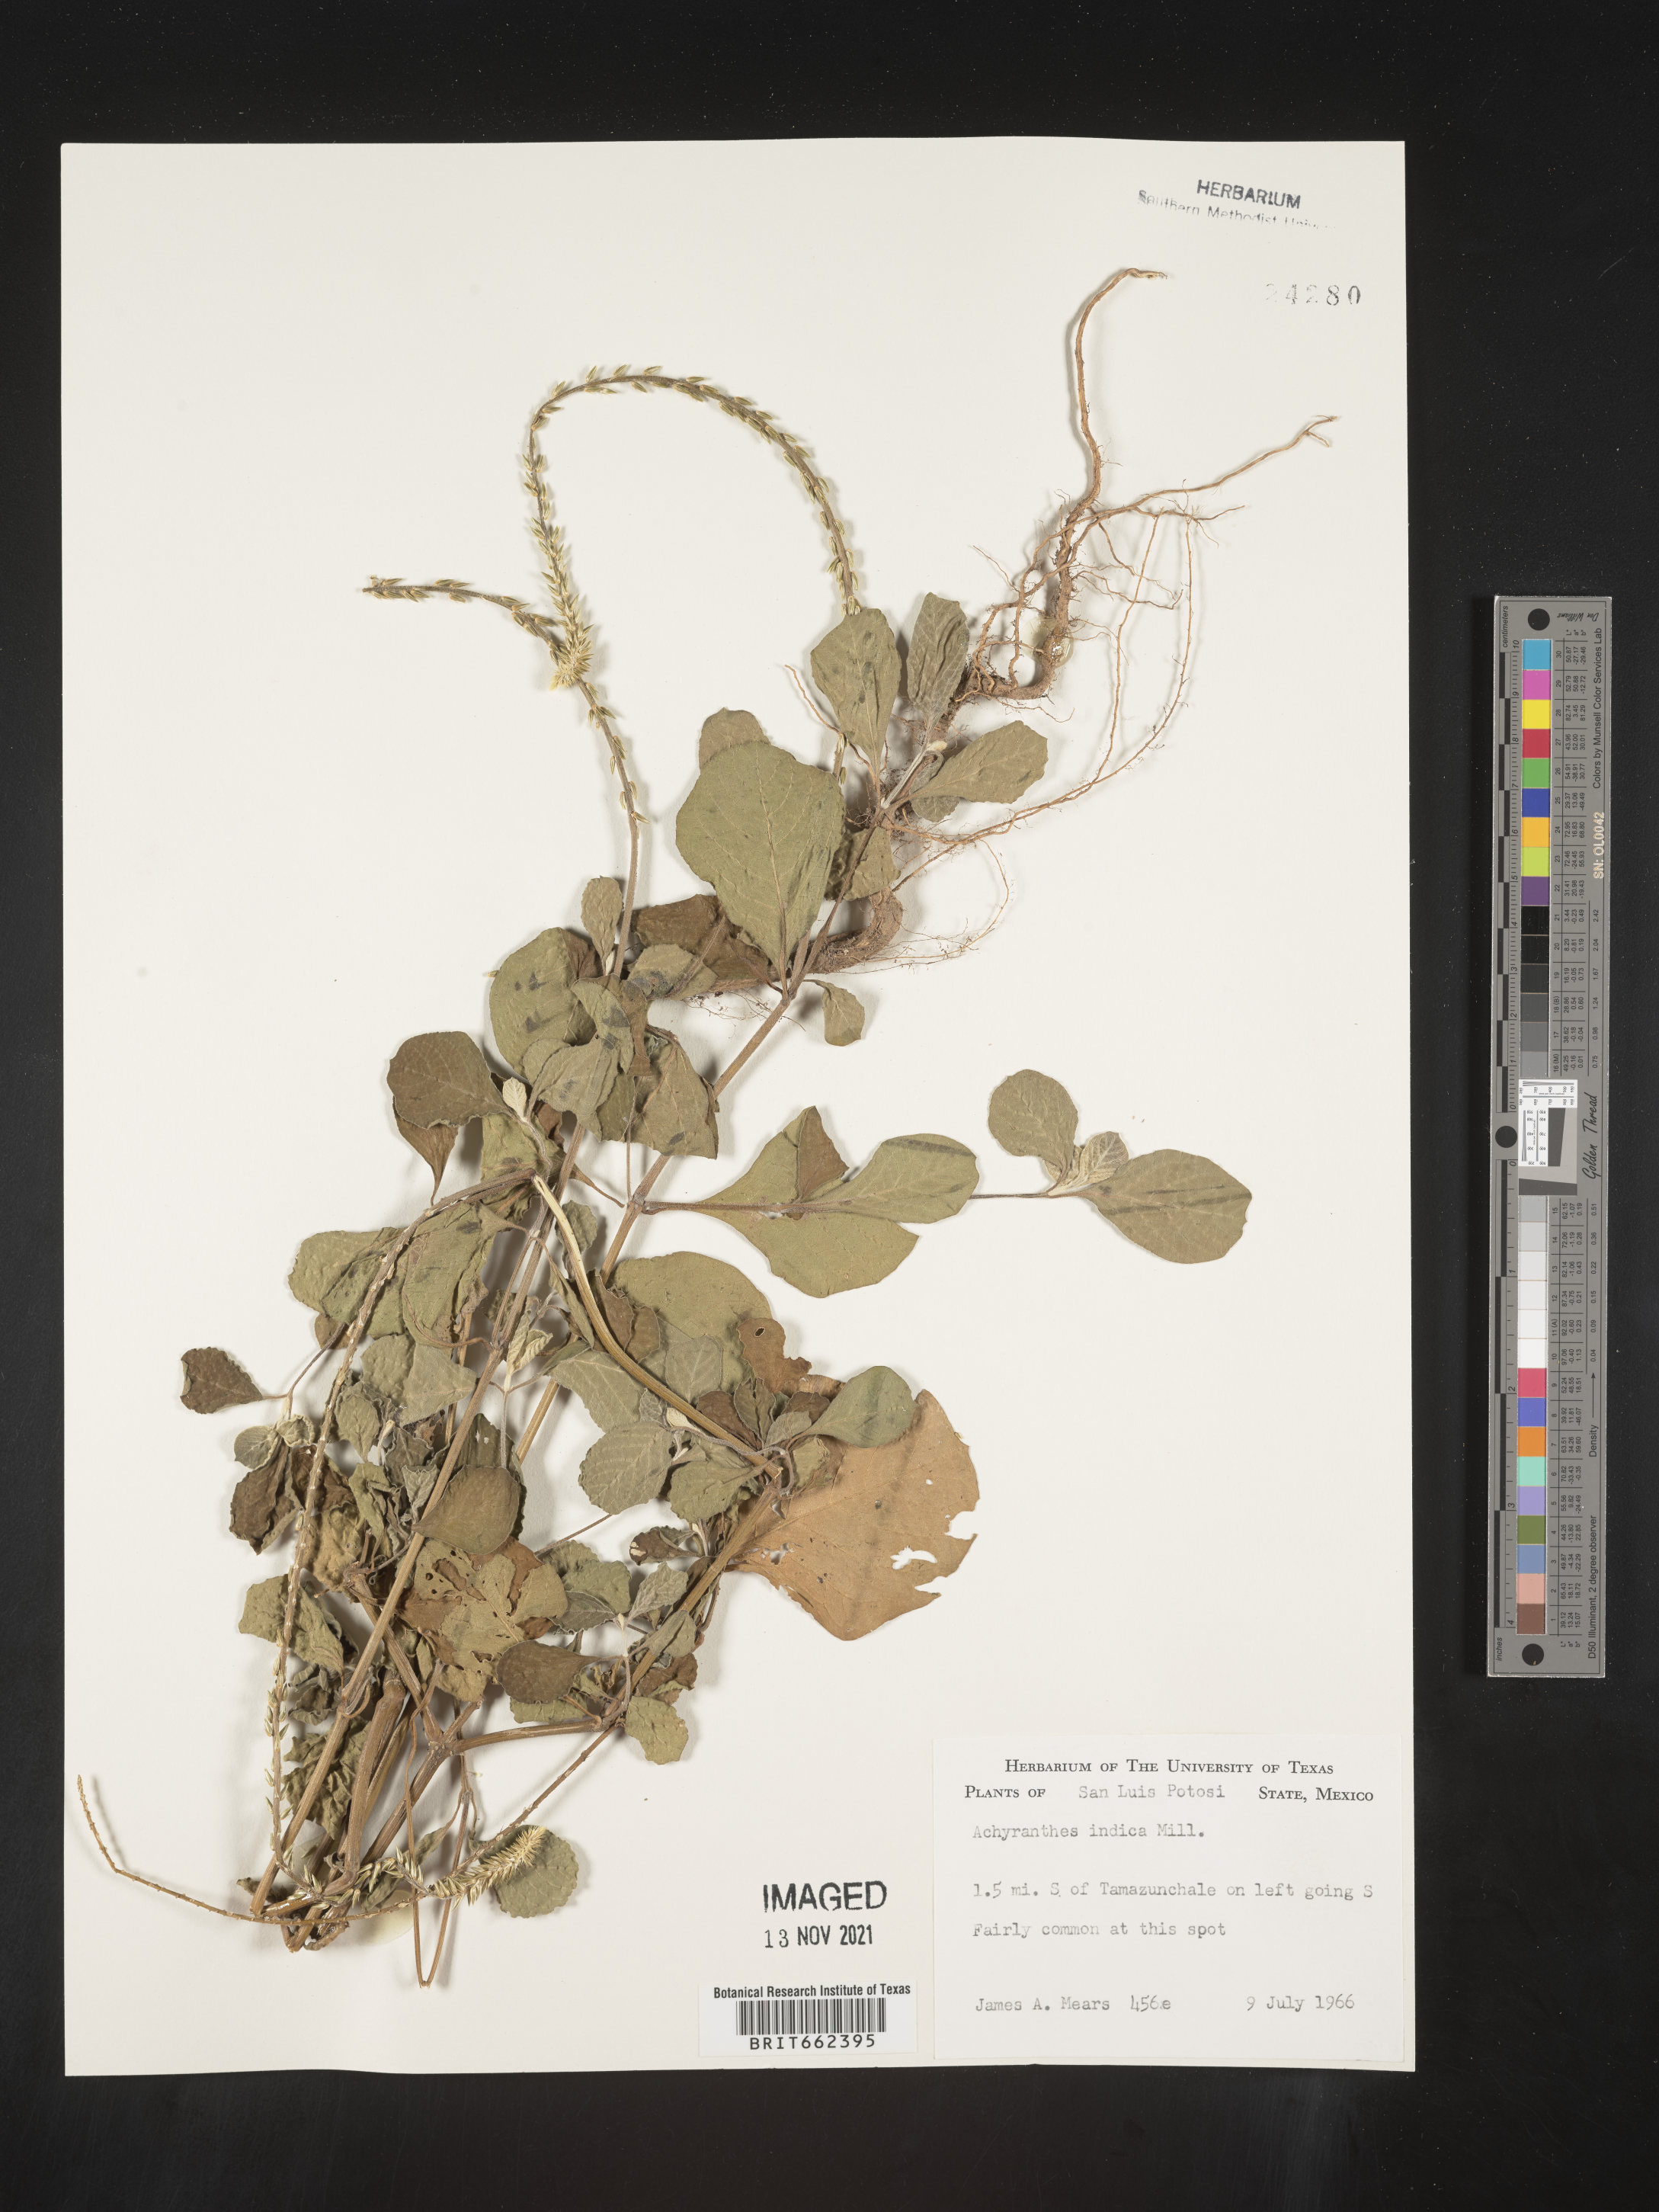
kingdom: Plantae
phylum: Tracheophyta
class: Magnoliopsida
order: Caryophyllales
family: Amaranthaceae
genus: Achyranthes
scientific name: Achyranthes
